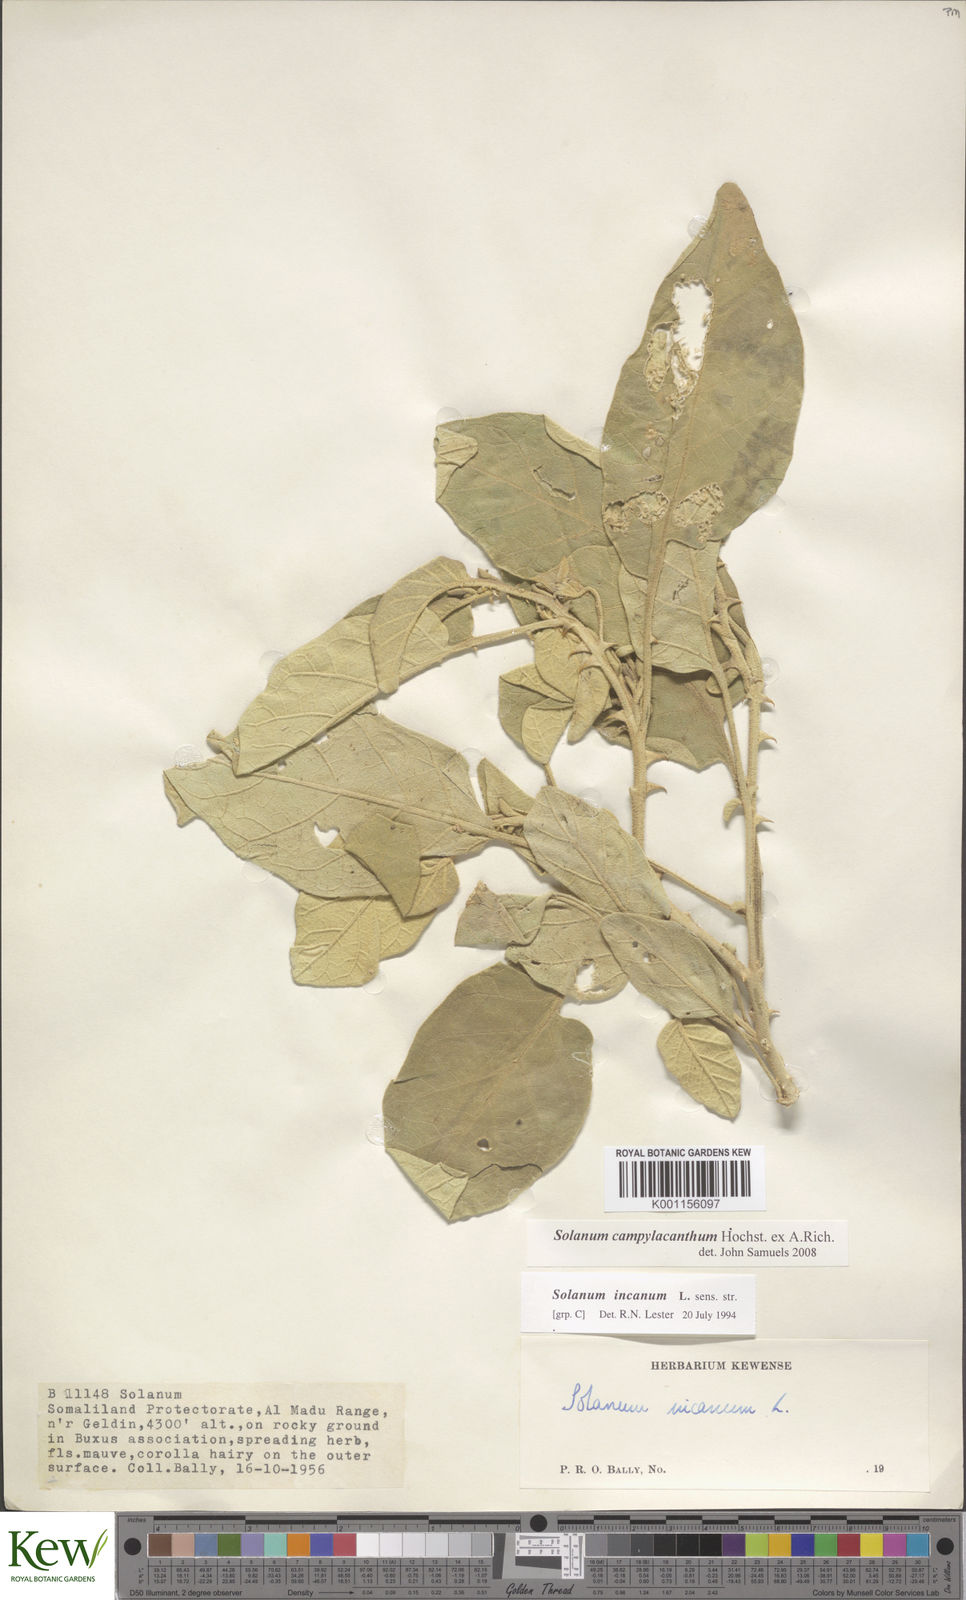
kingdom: Plantae
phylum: Tracheophyta
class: Magnoliopsida
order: Solanales
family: Solanaceae
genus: Solanum
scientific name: Solanum campylacanthum
